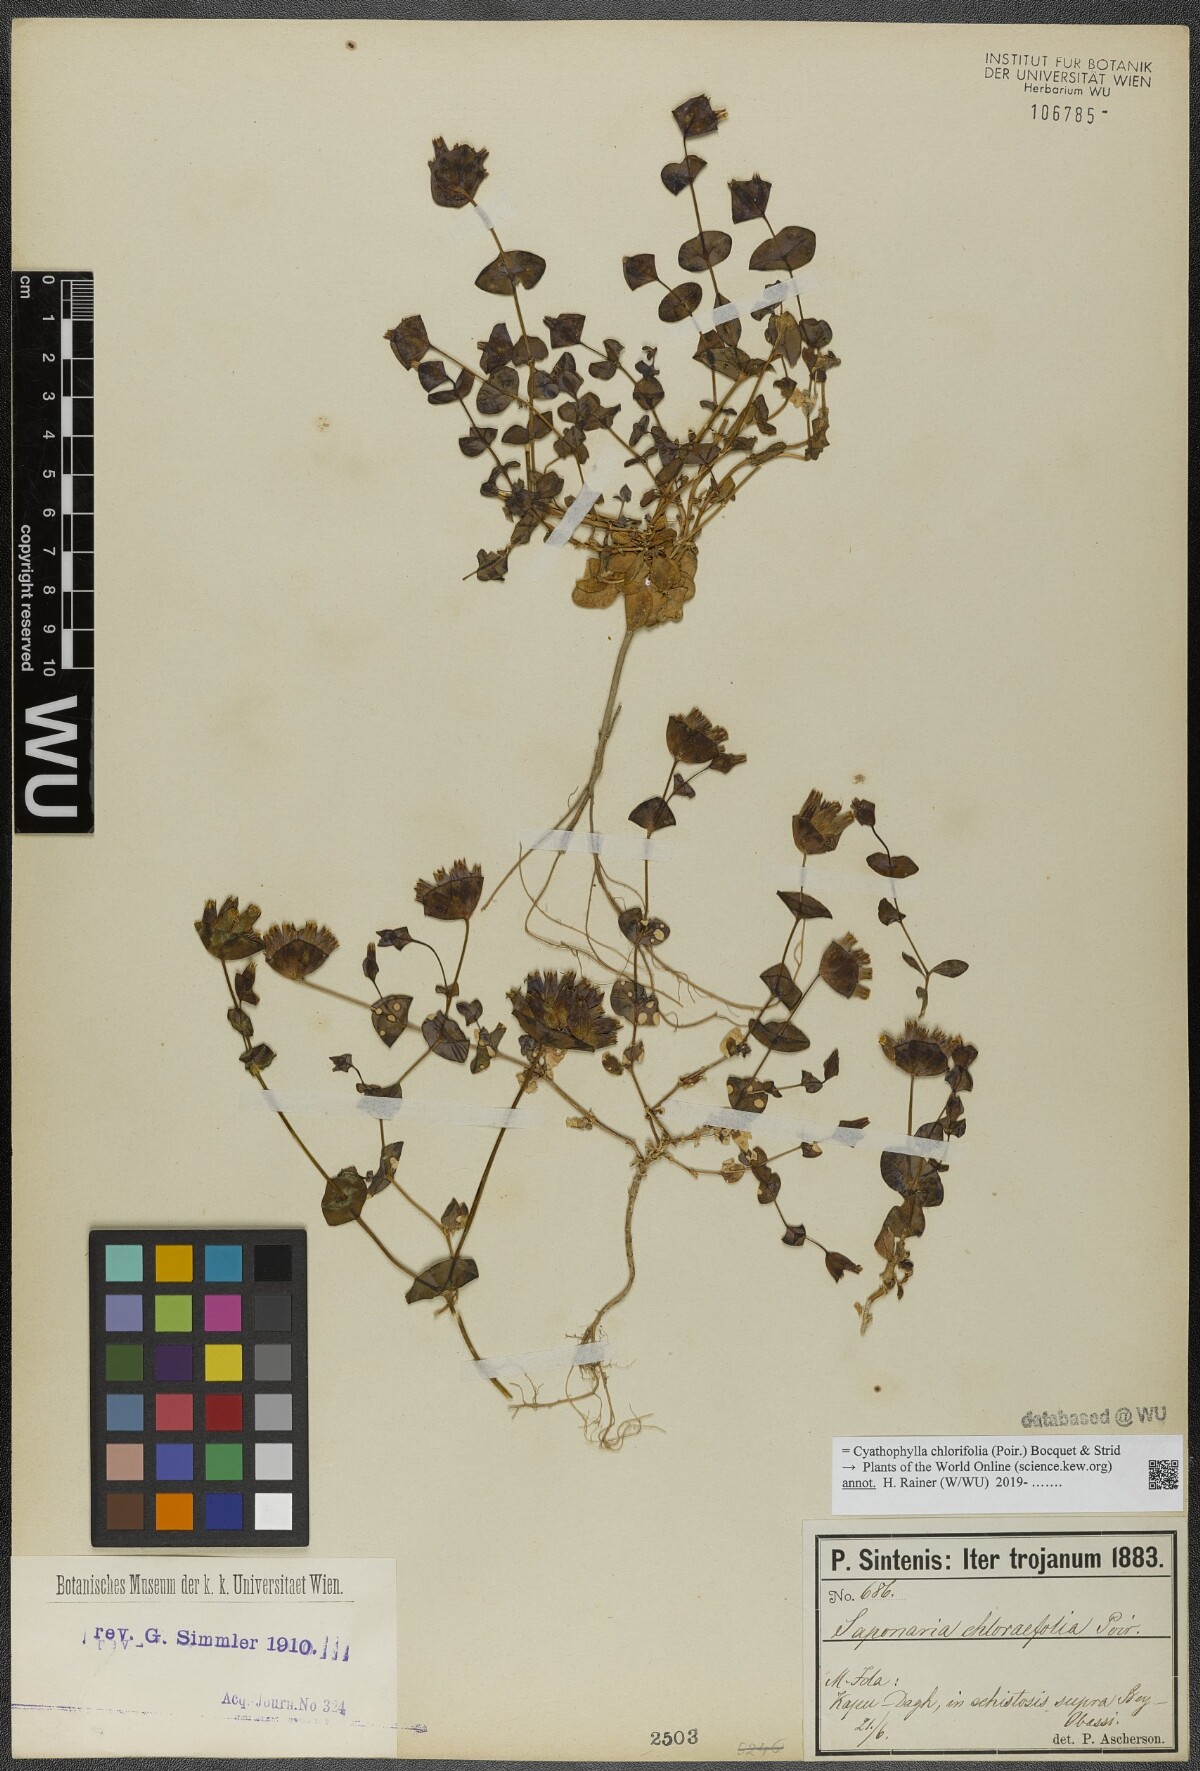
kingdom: Plantae
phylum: Tracheophyta
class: Magnoliopsida
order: Caryophyllales
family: Caryophyllaceae
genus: Cyathophylla
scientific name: Cyathophylla chlorifolia
